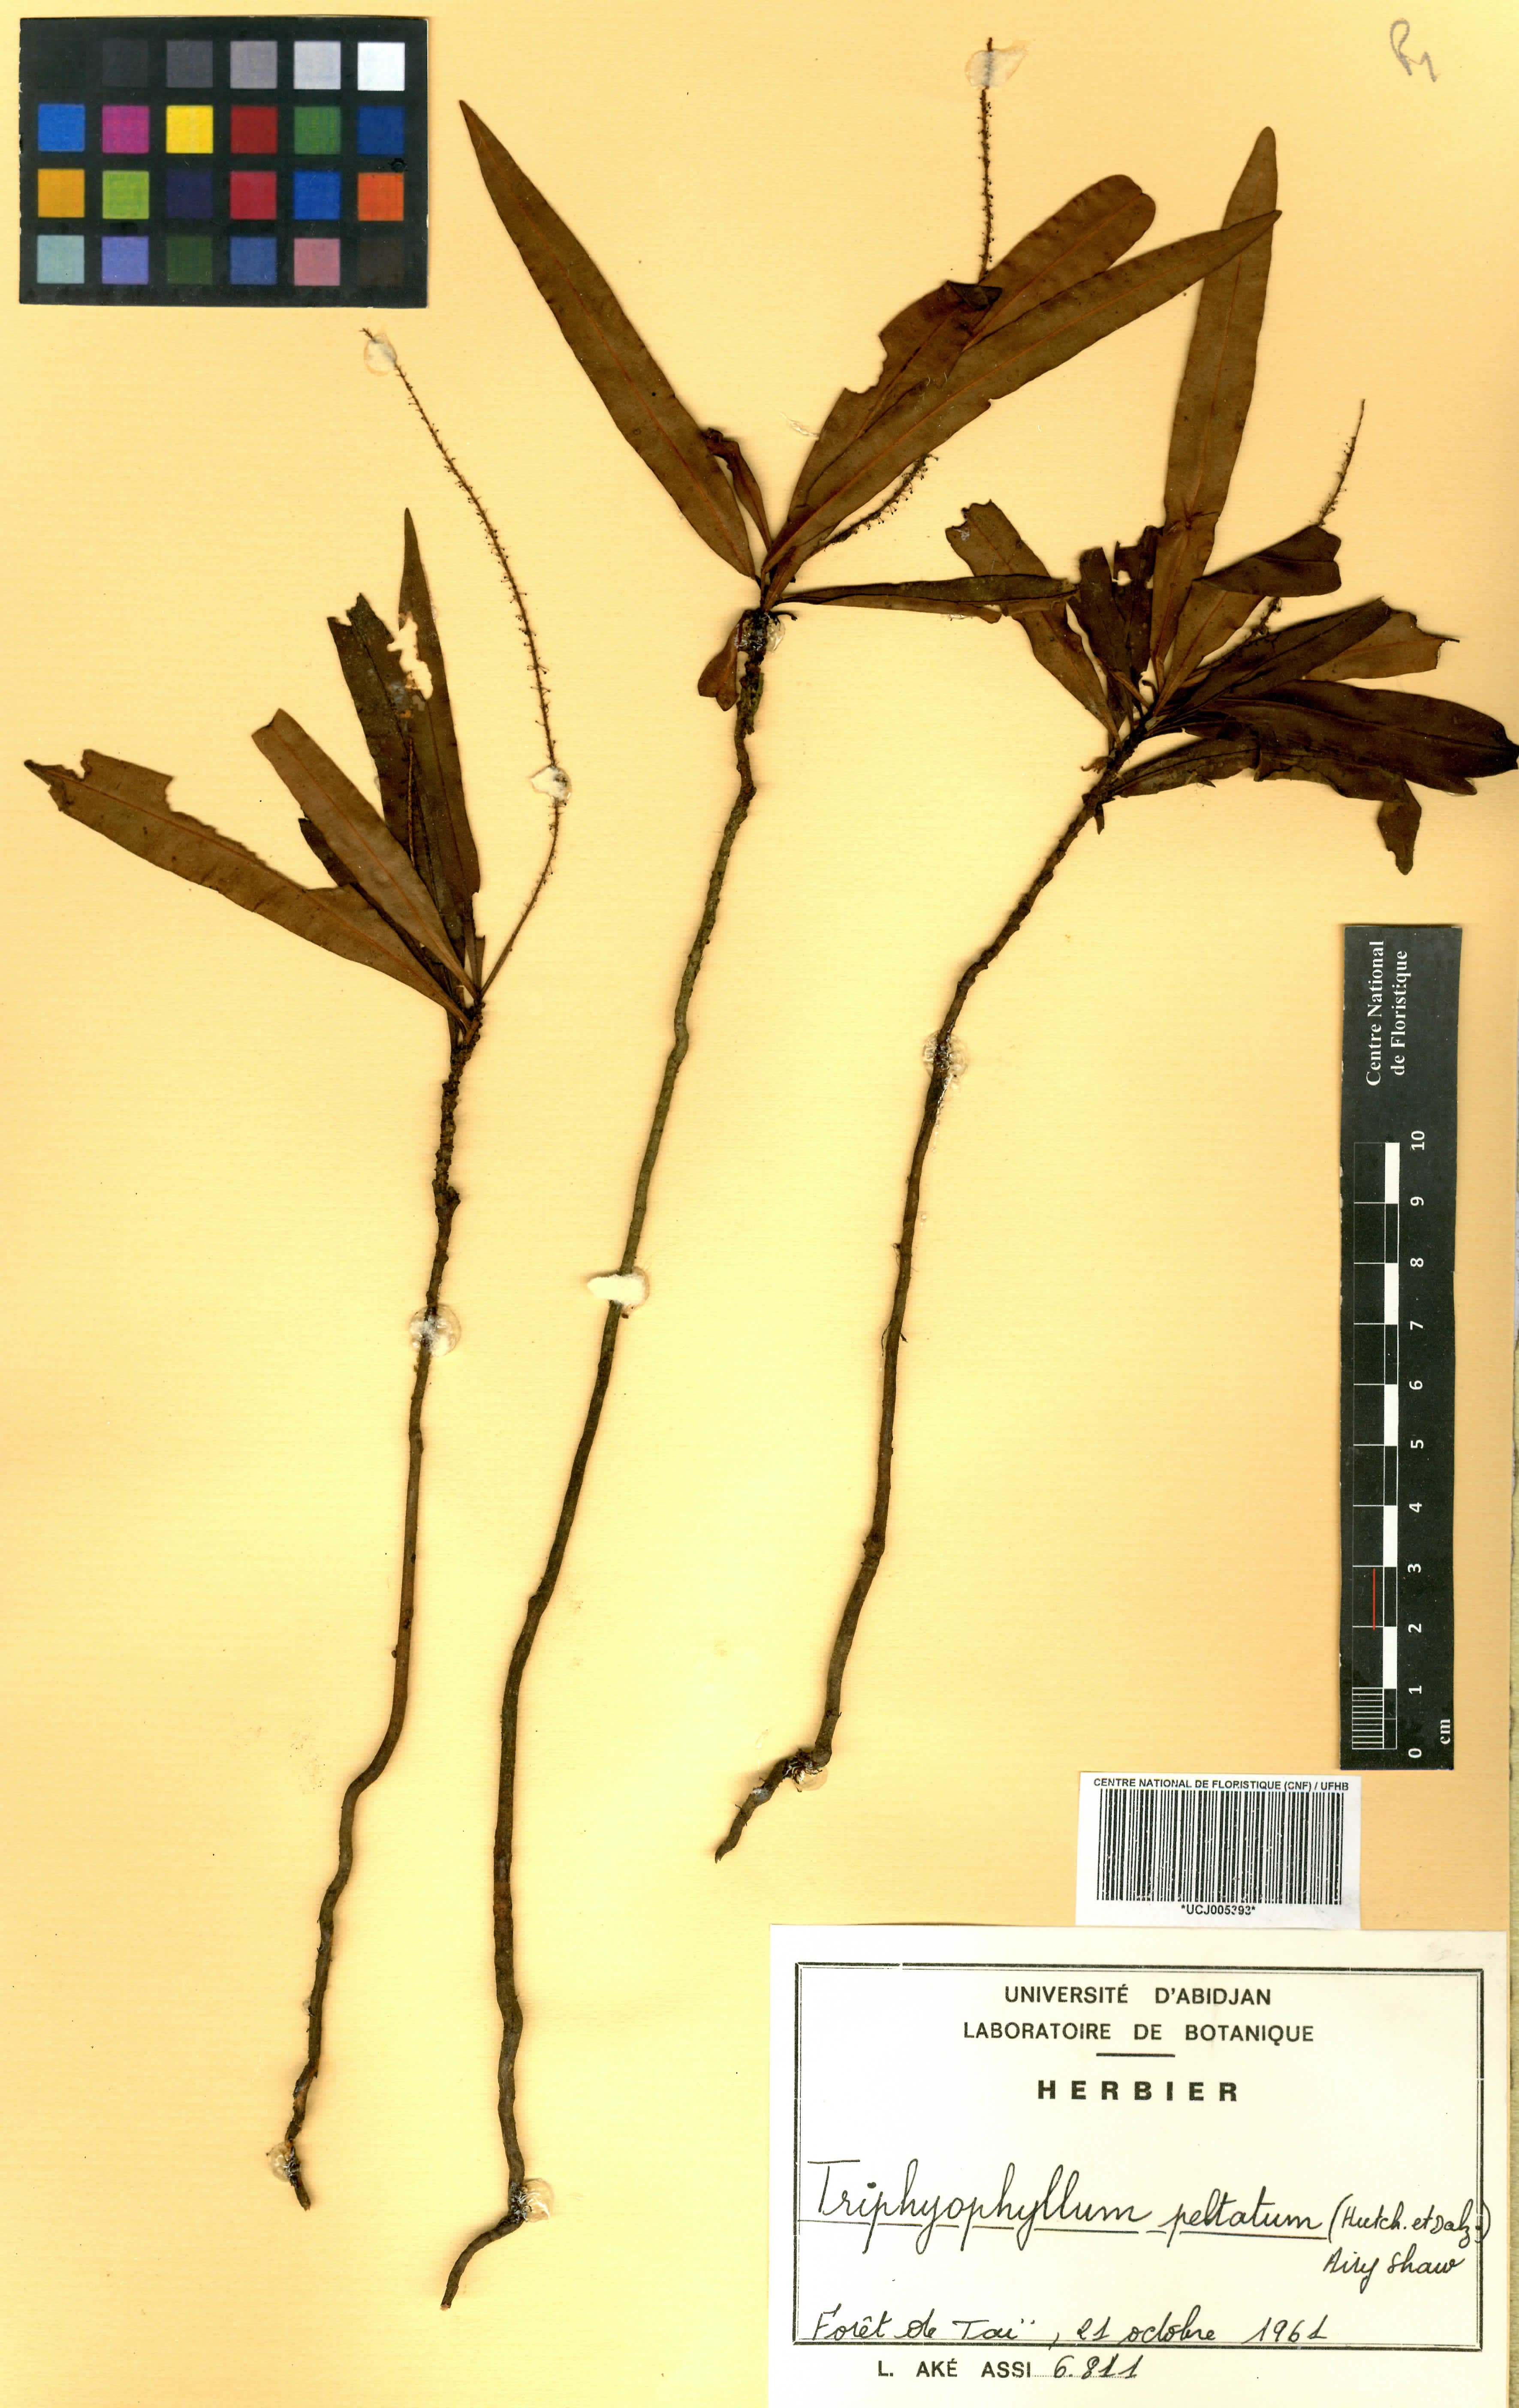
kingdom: Plantae
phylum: Tracheophyta
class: Magnoliopsida
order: Caryophyllales
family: Dioncophyllaceae
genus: Triphyophyllum
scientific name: Triphyophyllum peltatum
